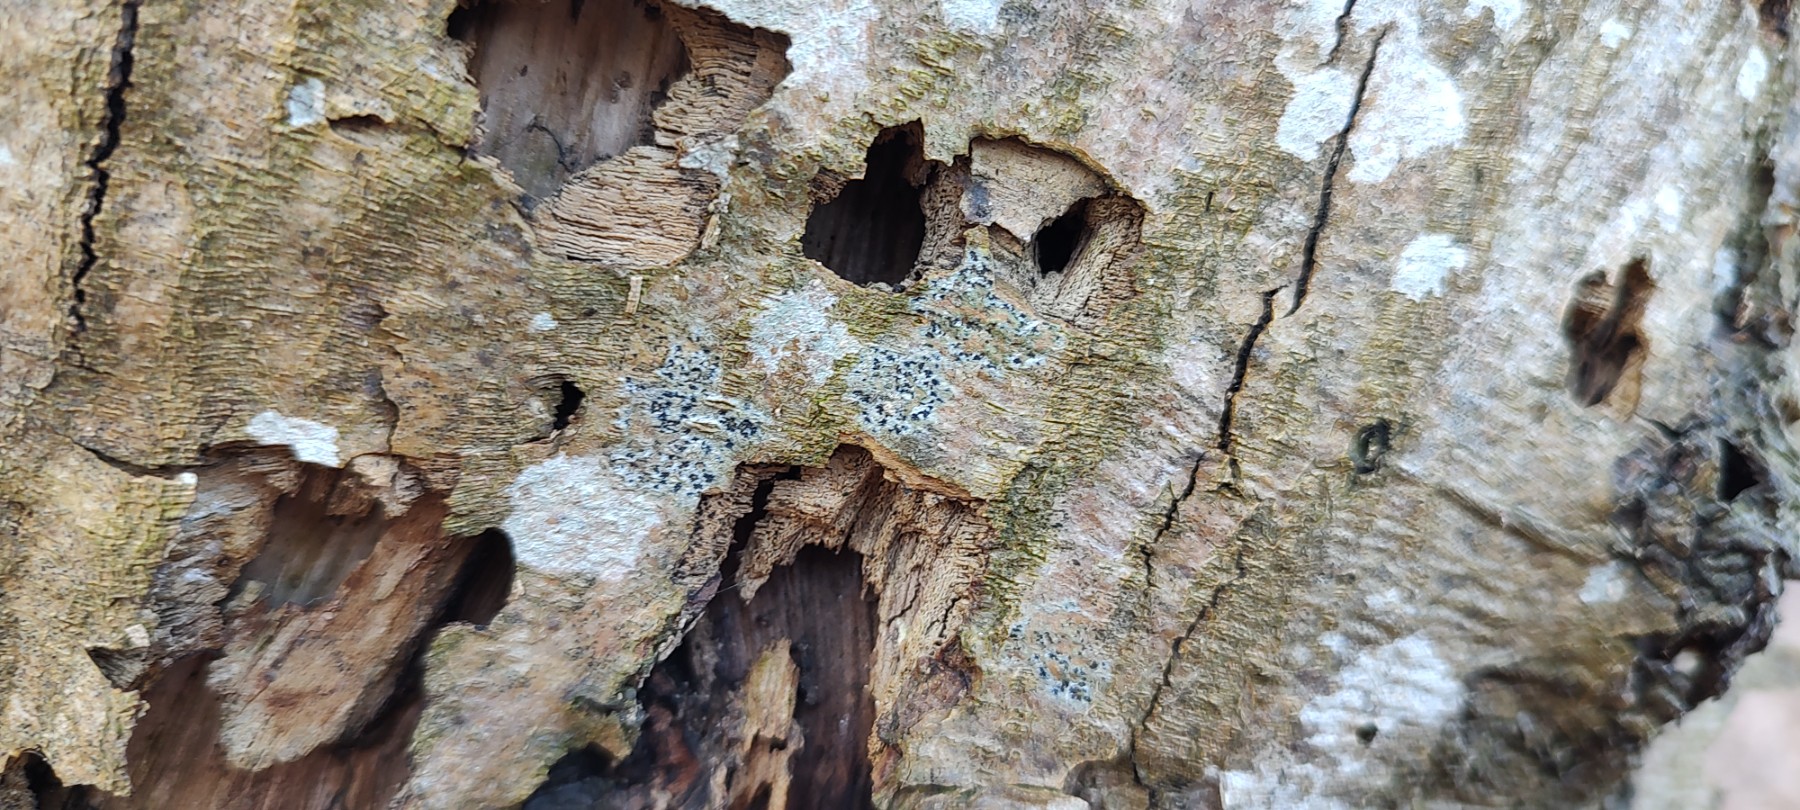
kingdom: Fungi
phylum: Ascomycota
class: Arthoniomycetes
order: Arthoniales
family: Arthoniaceae
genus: Arthonia
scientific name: Arthonia radiata
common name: stjerne-pletlav
